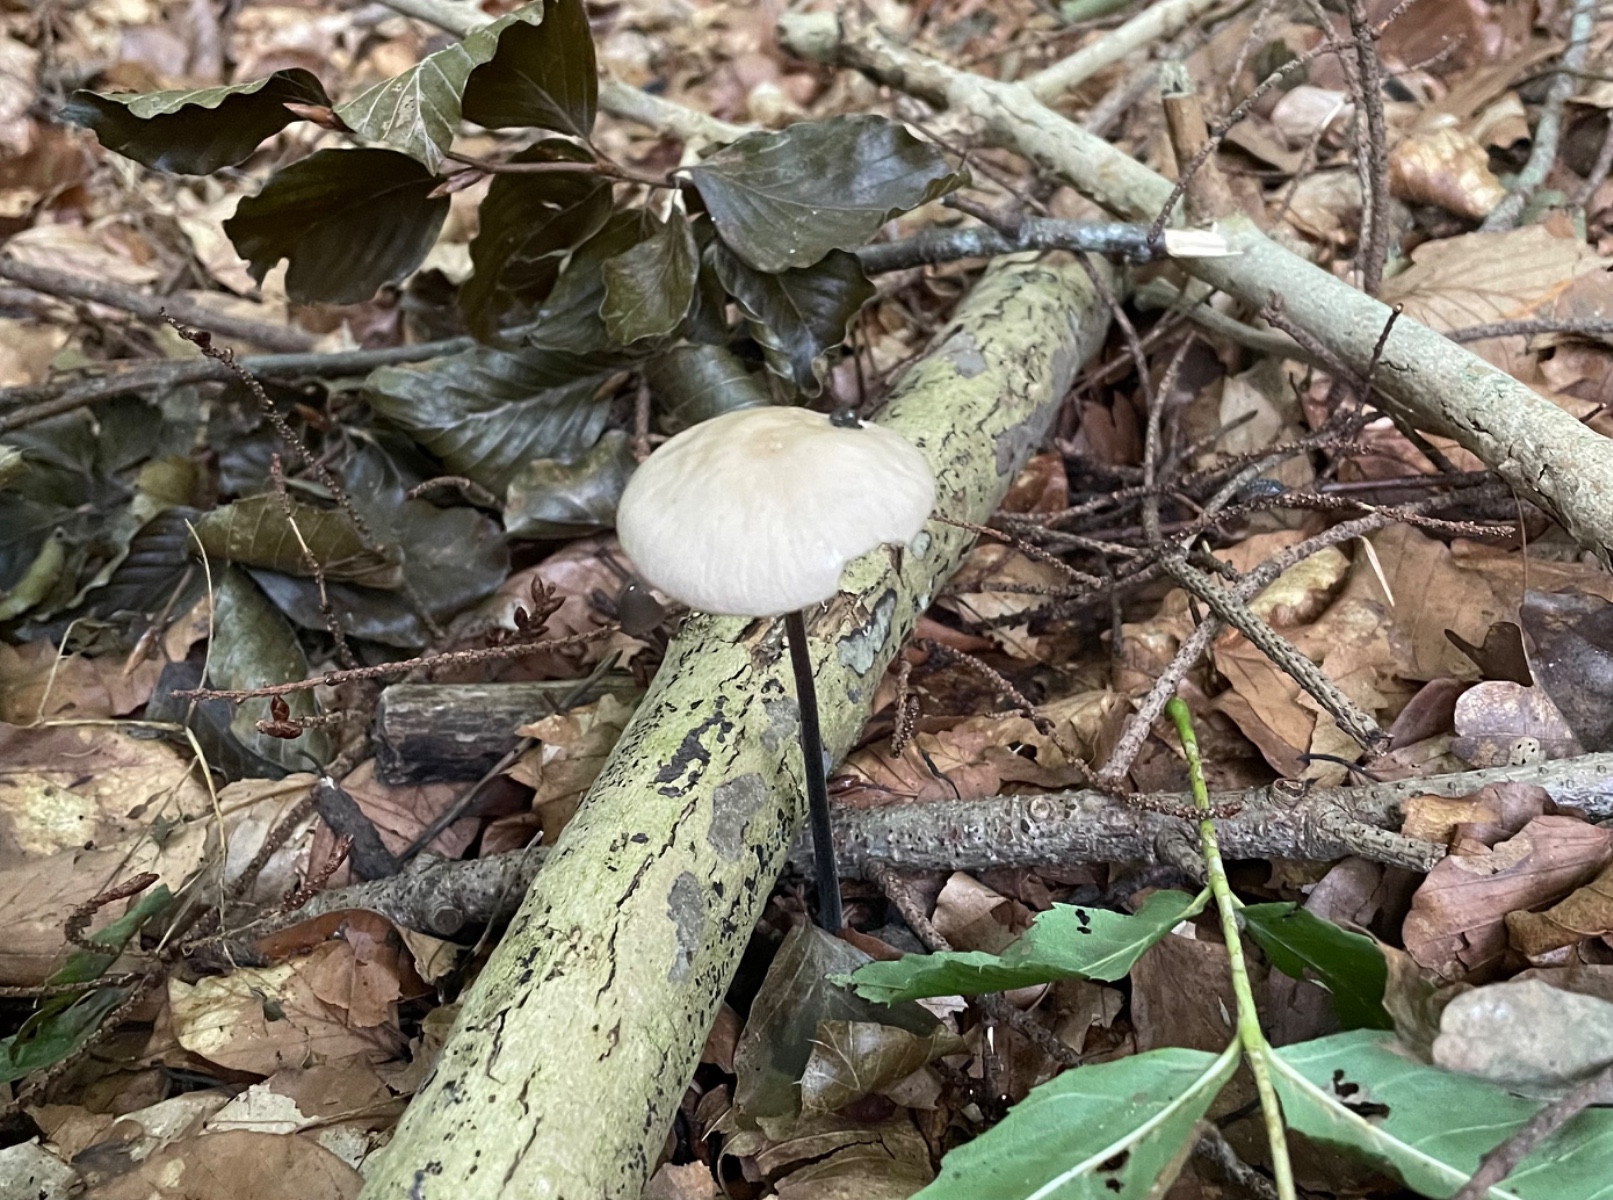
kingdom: Fungi
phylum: Basidiomycota
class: Agaricomycetes
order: Agaricales
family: Omphalotaceae
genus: Mycetinis
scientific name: Mycetinis alliaceus
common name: stor løghat
